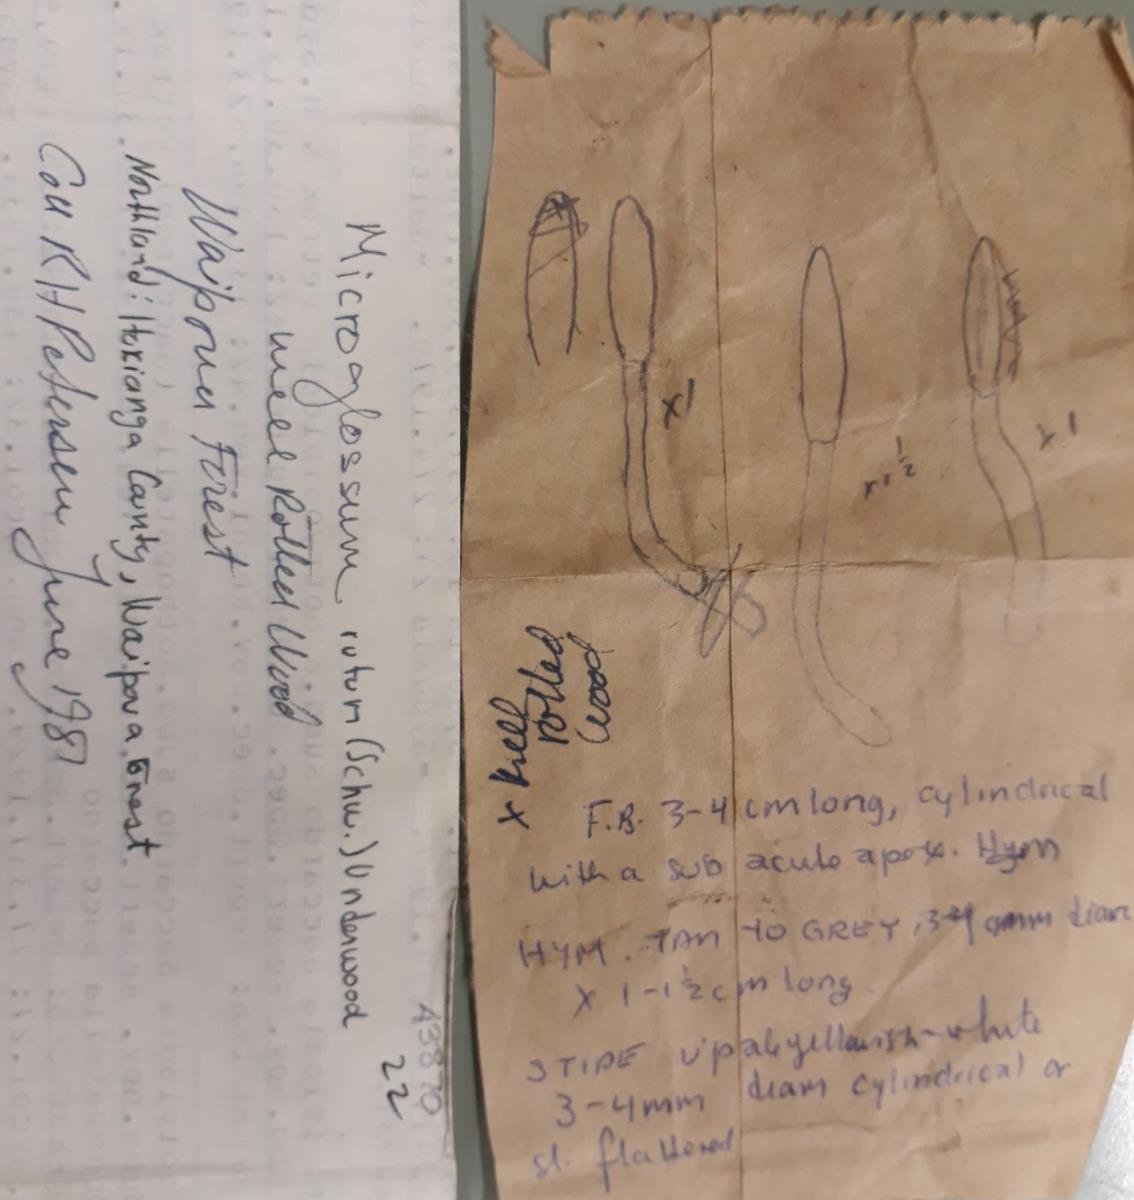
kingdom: Fungi
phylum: Ascomycota
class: Leotiomycetes
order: Leotiales
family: Leotiaceae
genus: Microglossum
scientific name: Microglossum rufum
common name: Orange earthtongue
